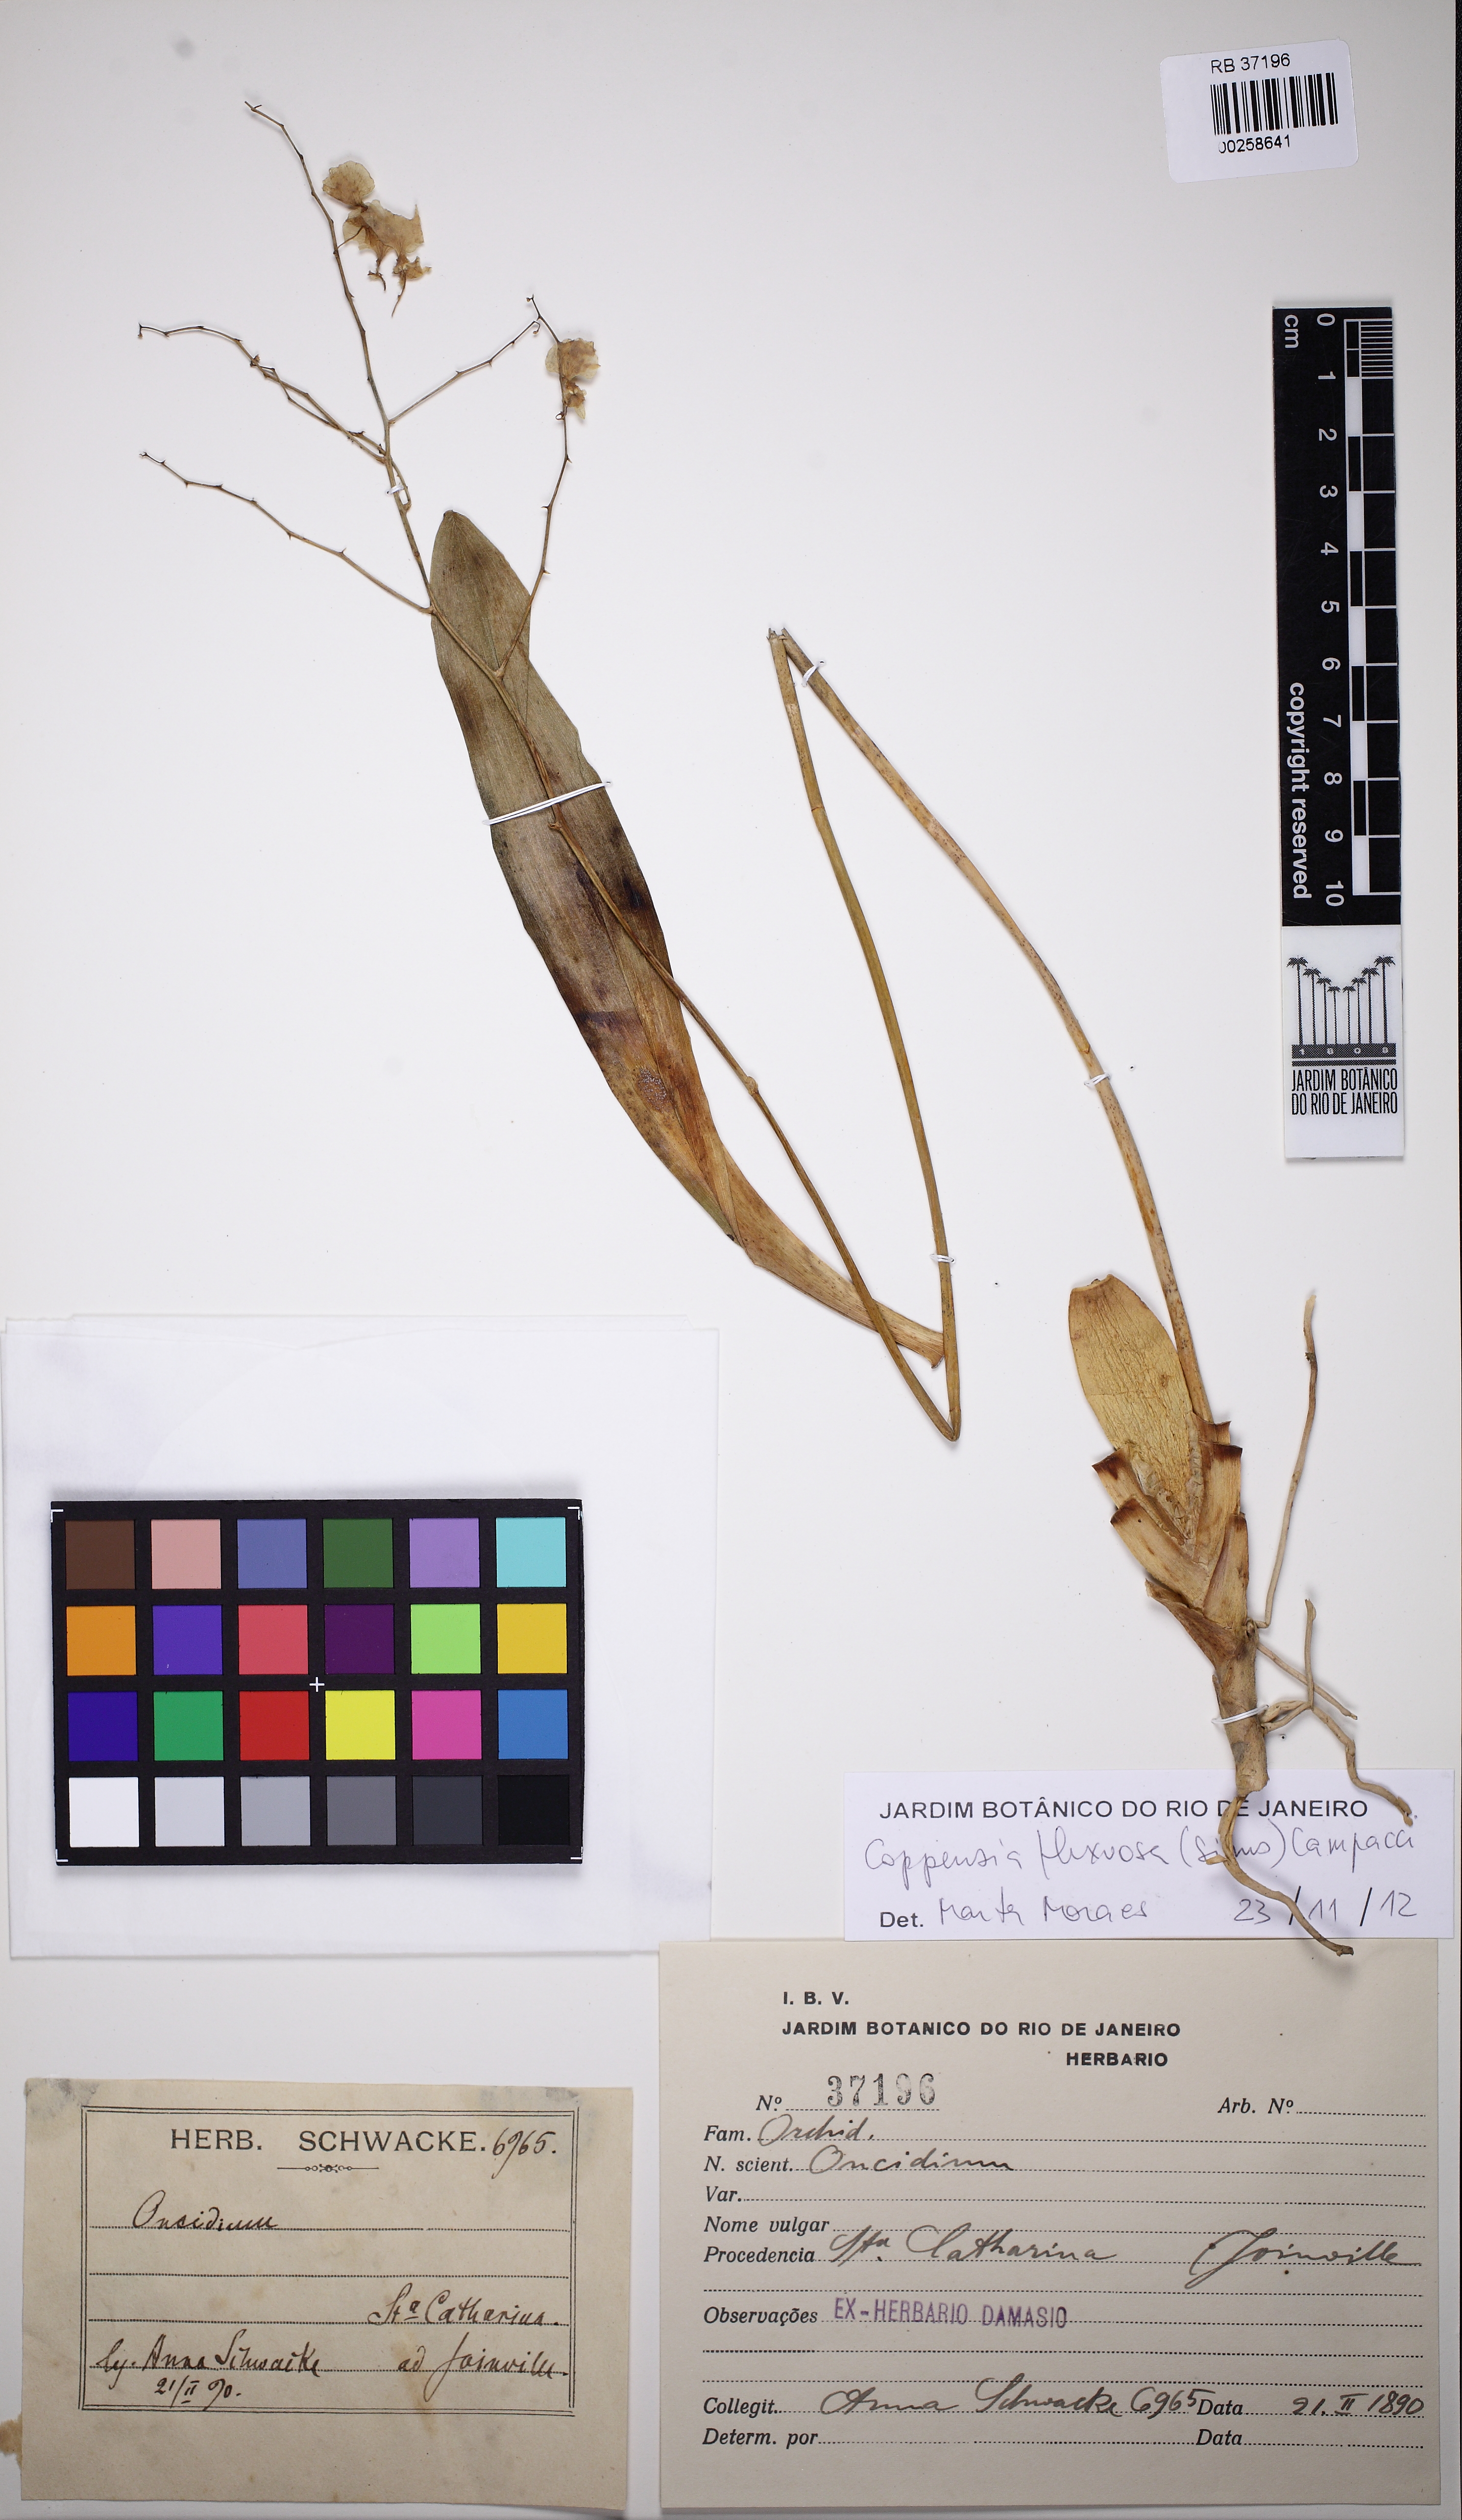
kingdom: Plantae
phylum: Tracheophyta
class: Liliopsida
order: Asparagales
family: Orchidaceae
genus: Gomesa
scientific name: Gomesa flexuosa
